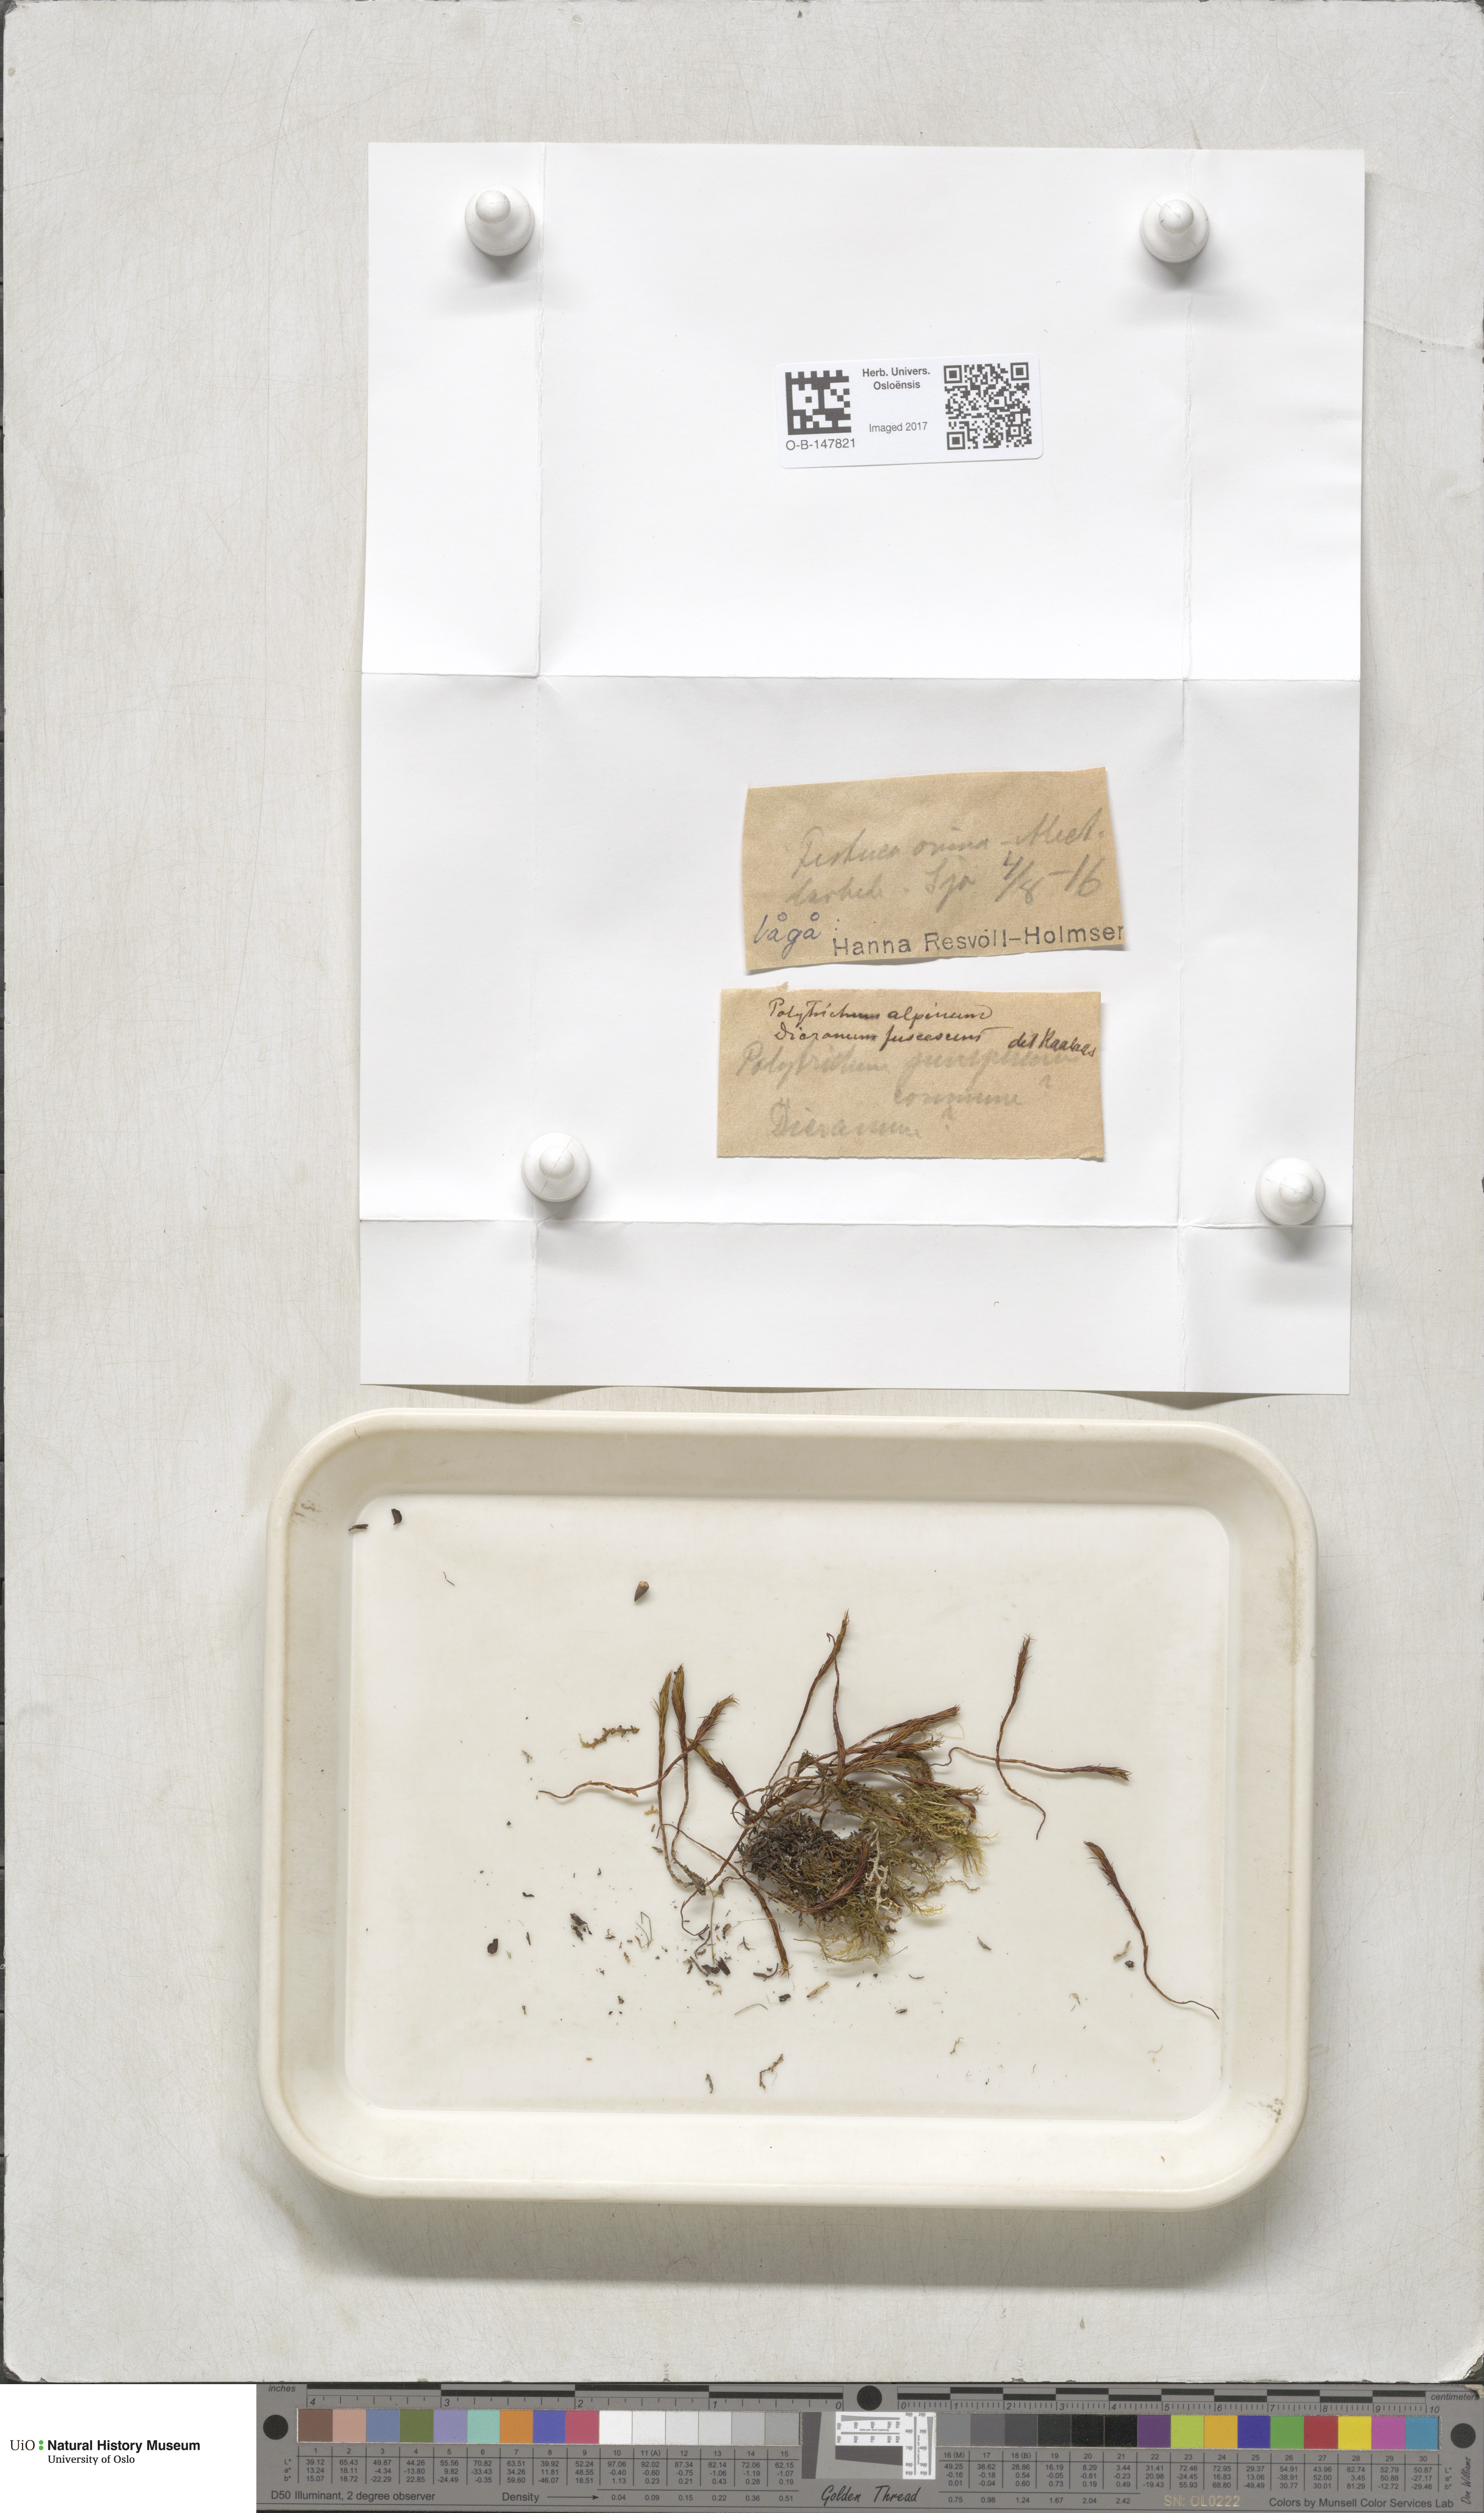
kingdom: Plantae
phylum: Bryophyta
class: Polytrichopsida
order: Polytrichales
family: Polytrichaceae
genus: Polytrichastrum
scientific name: Polytrichastrum alpinum
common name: Alpine haircap
